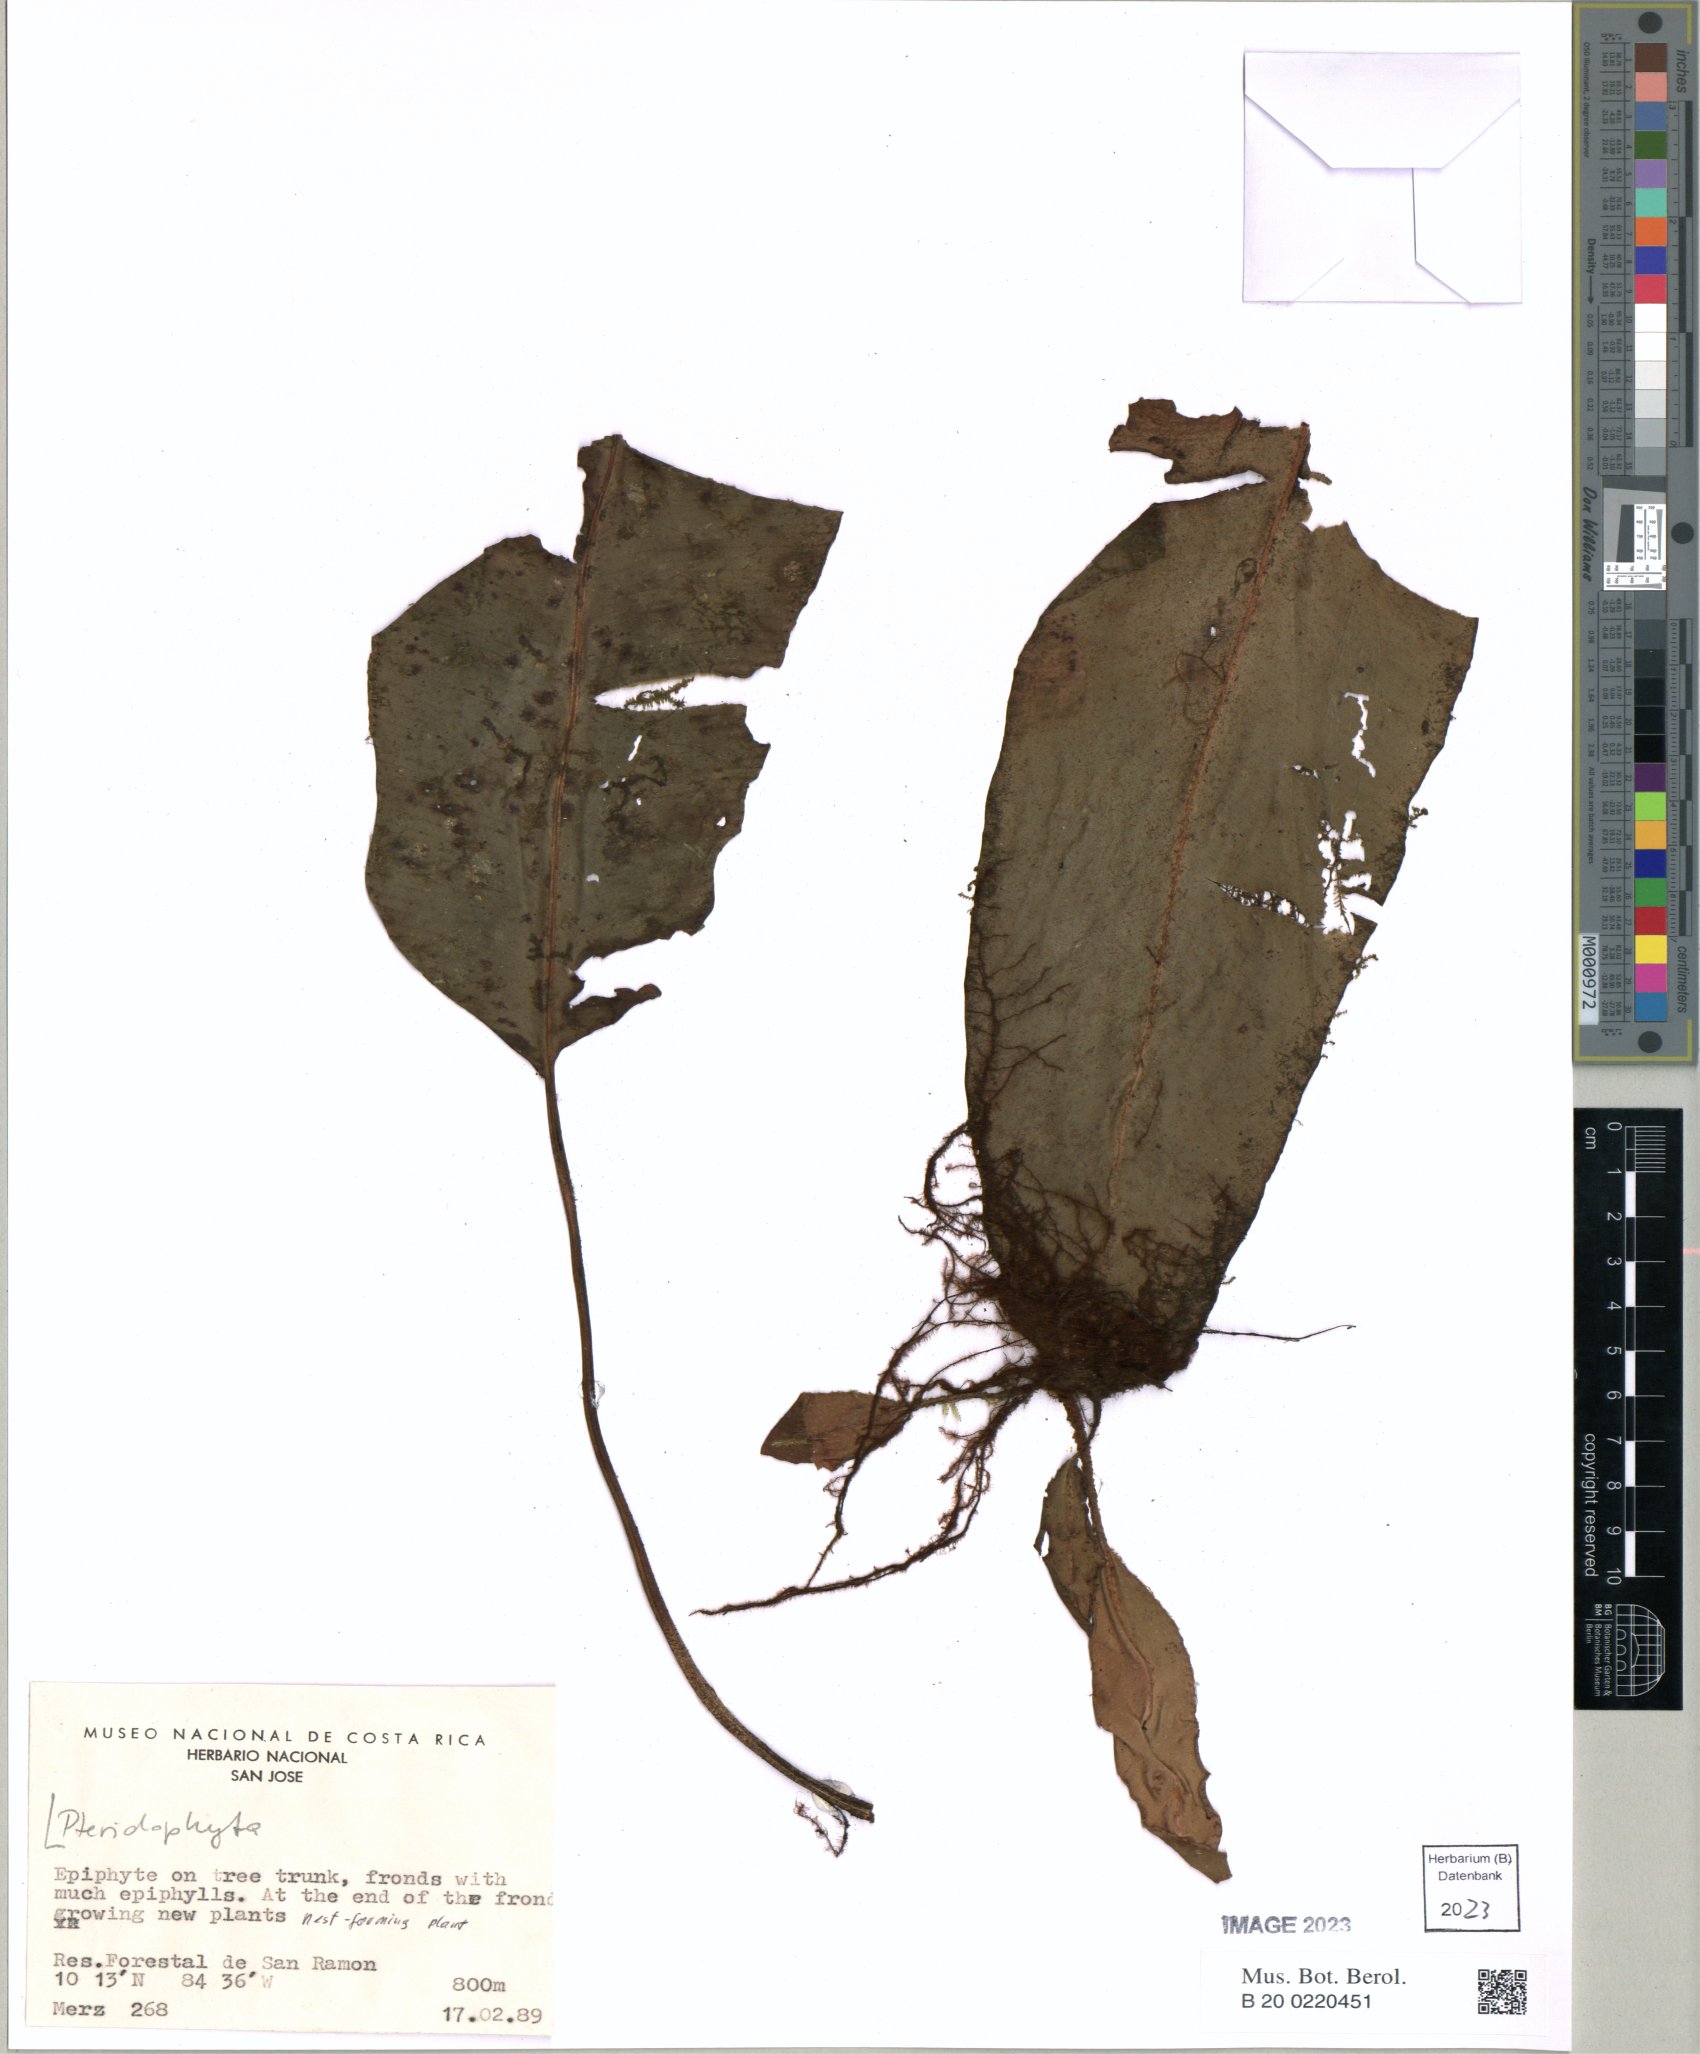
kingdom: Plantae
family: Pteridophyta
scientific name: Pteridophyta
